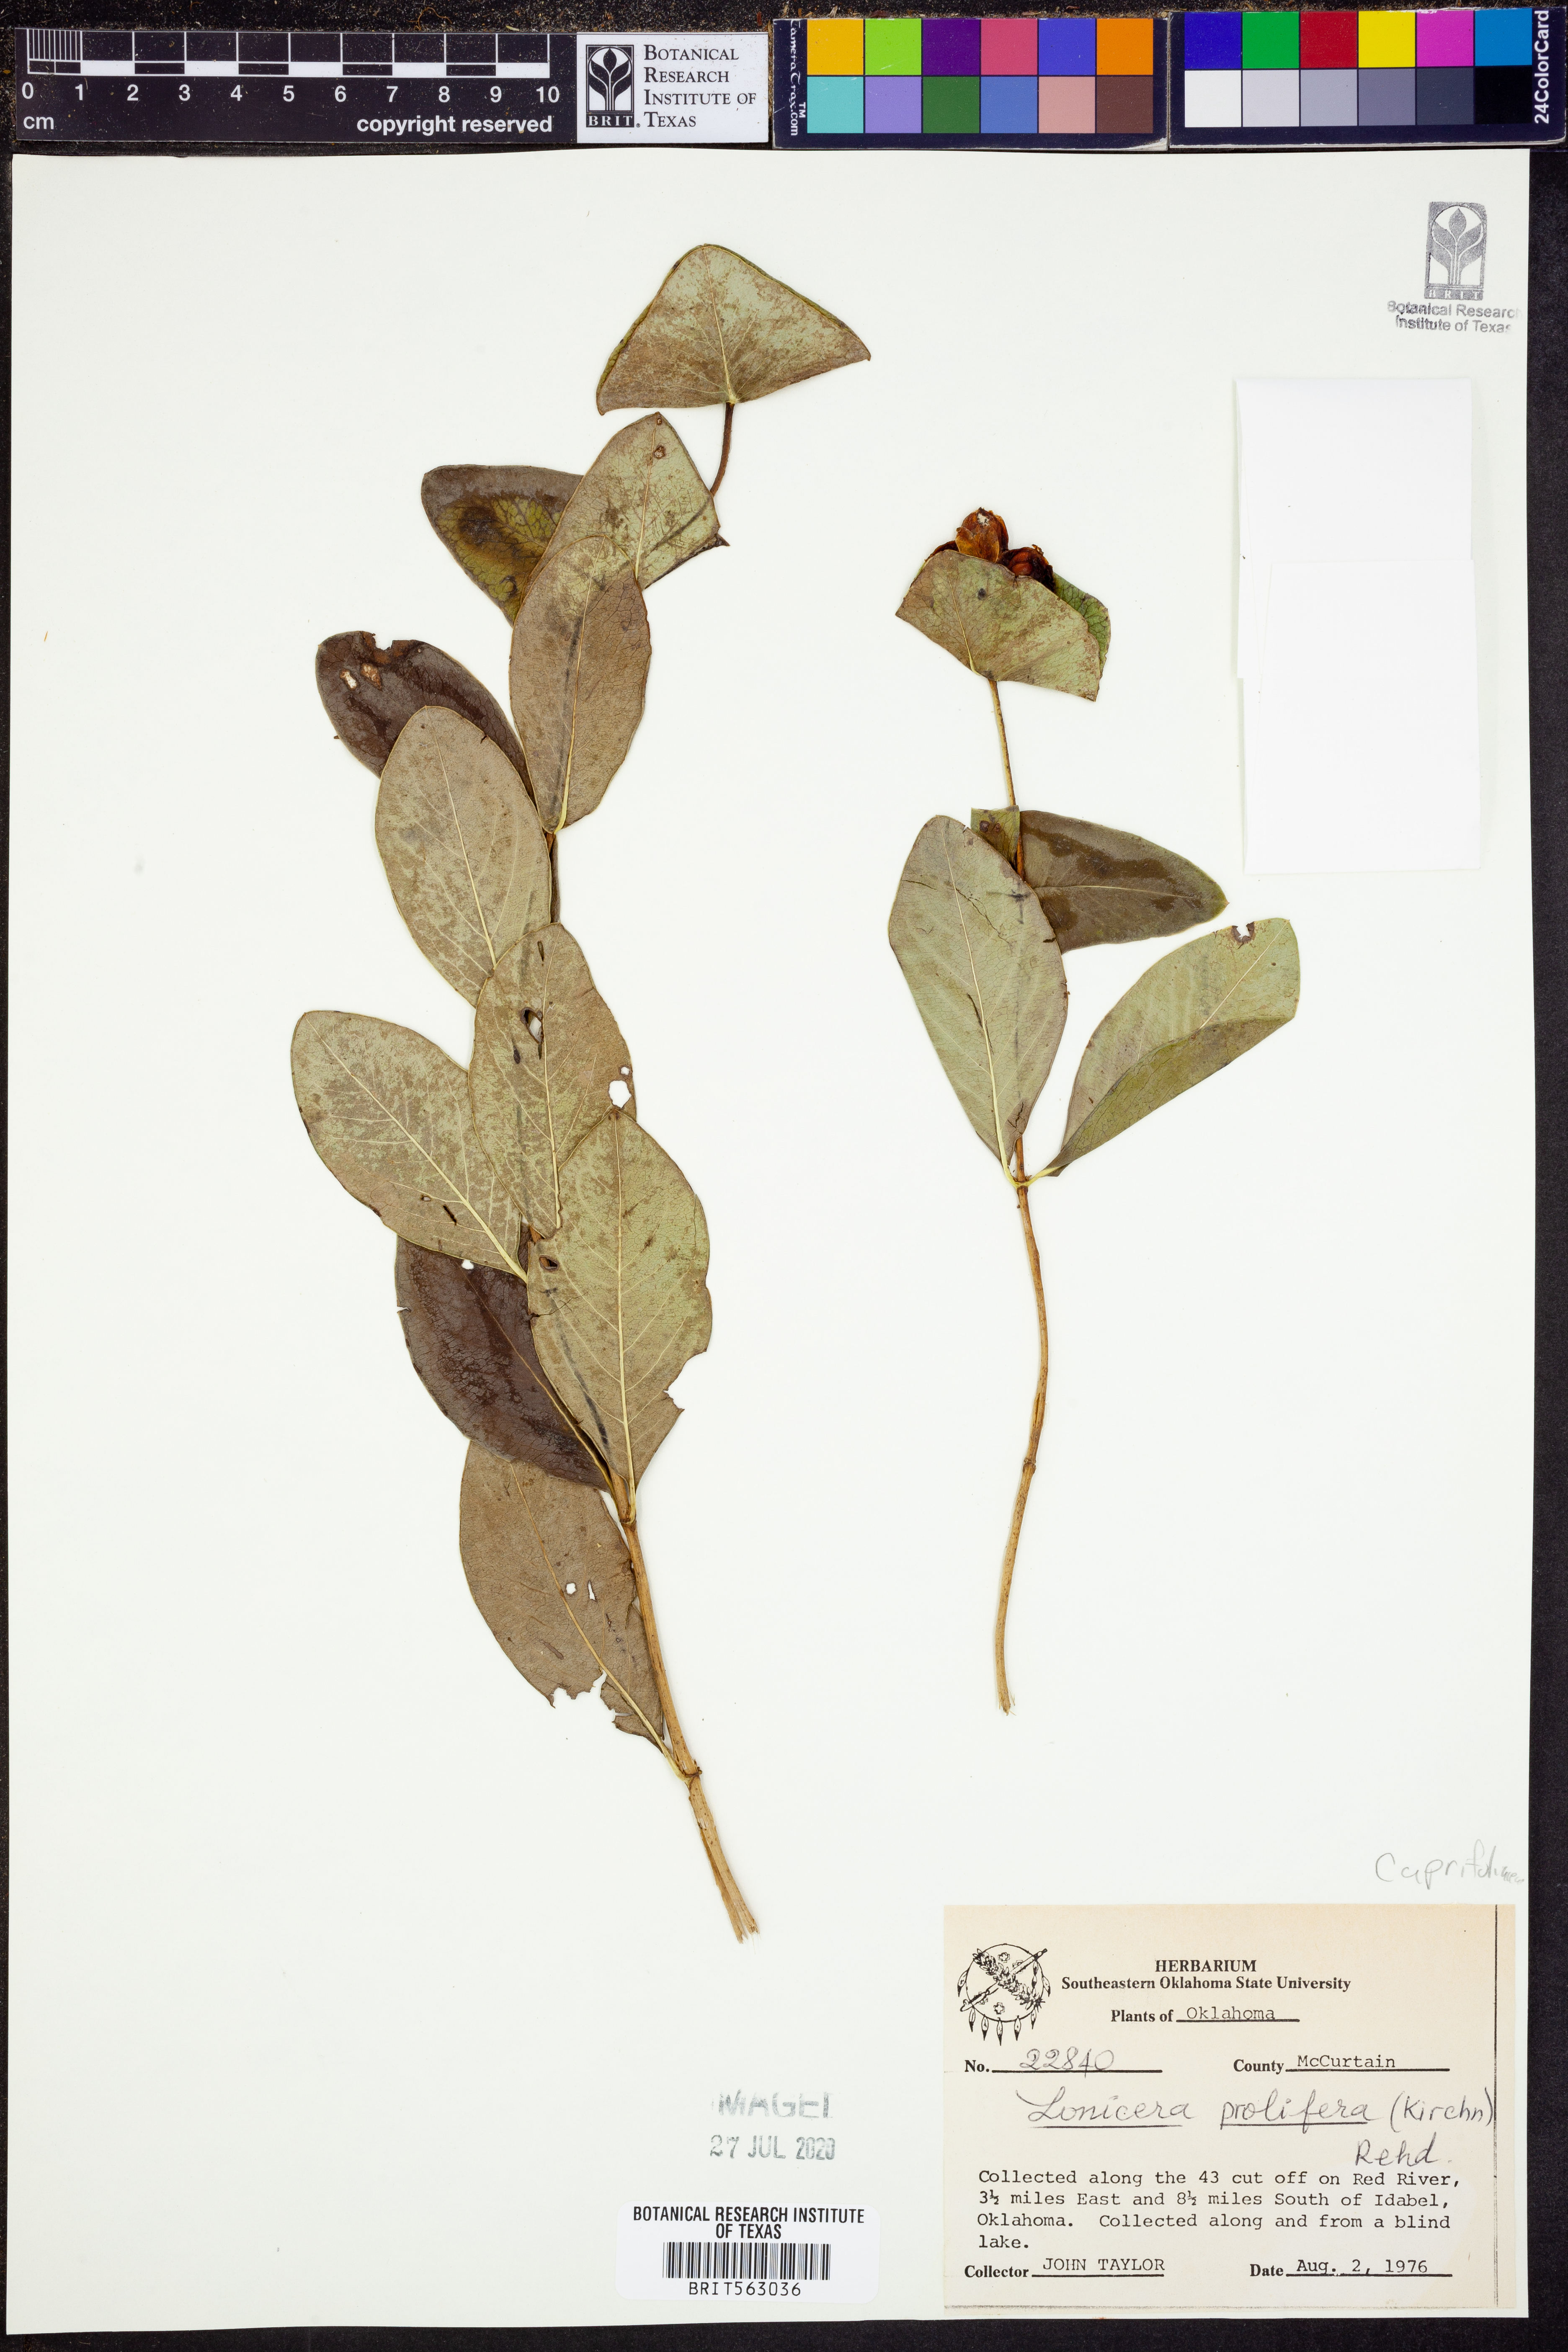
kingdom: Plantae
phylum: Tracheophyta
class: Magnoliopsida
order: Dipsacales
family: Caprifoliaceae
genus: Lonicera
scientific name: Lonicera reticulata
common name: Grape honeysuckle
